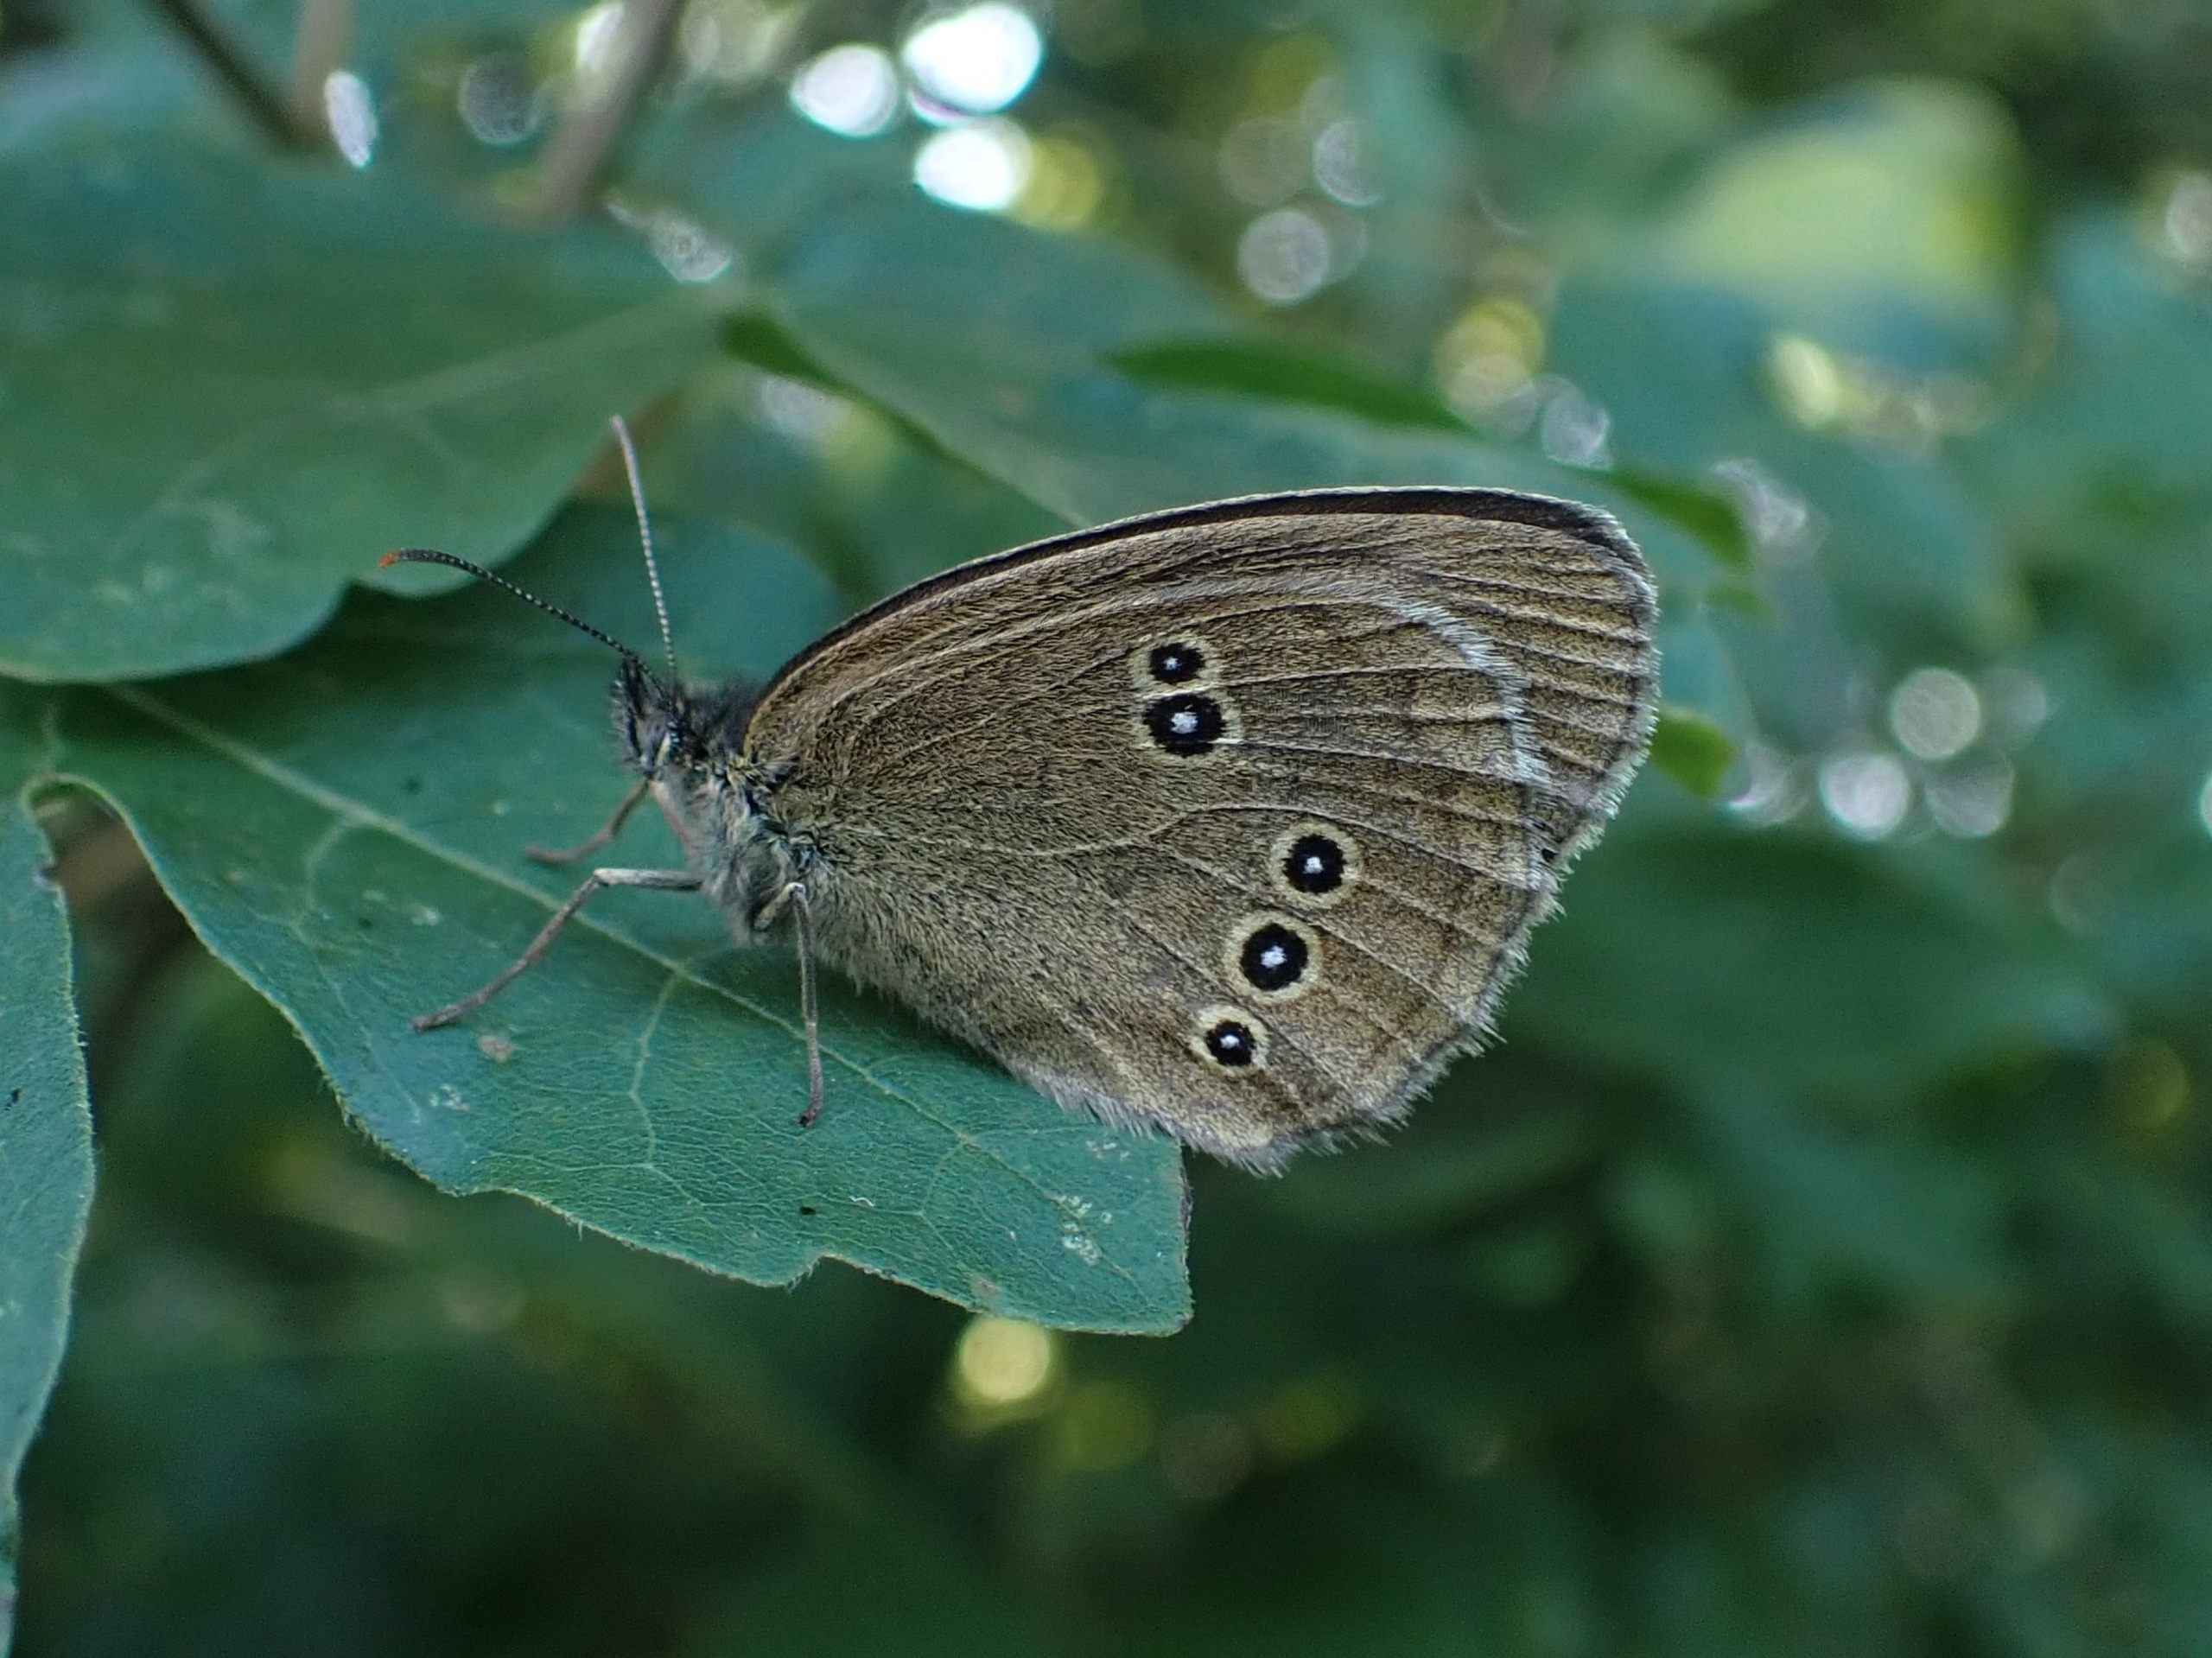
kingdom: Animalia
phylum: Arthropoda
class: Insecta
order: Lepidoptera
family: Nymphalidae
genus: Aphantopus
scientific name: Aphantopus hyperantus
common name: Engrandøje
